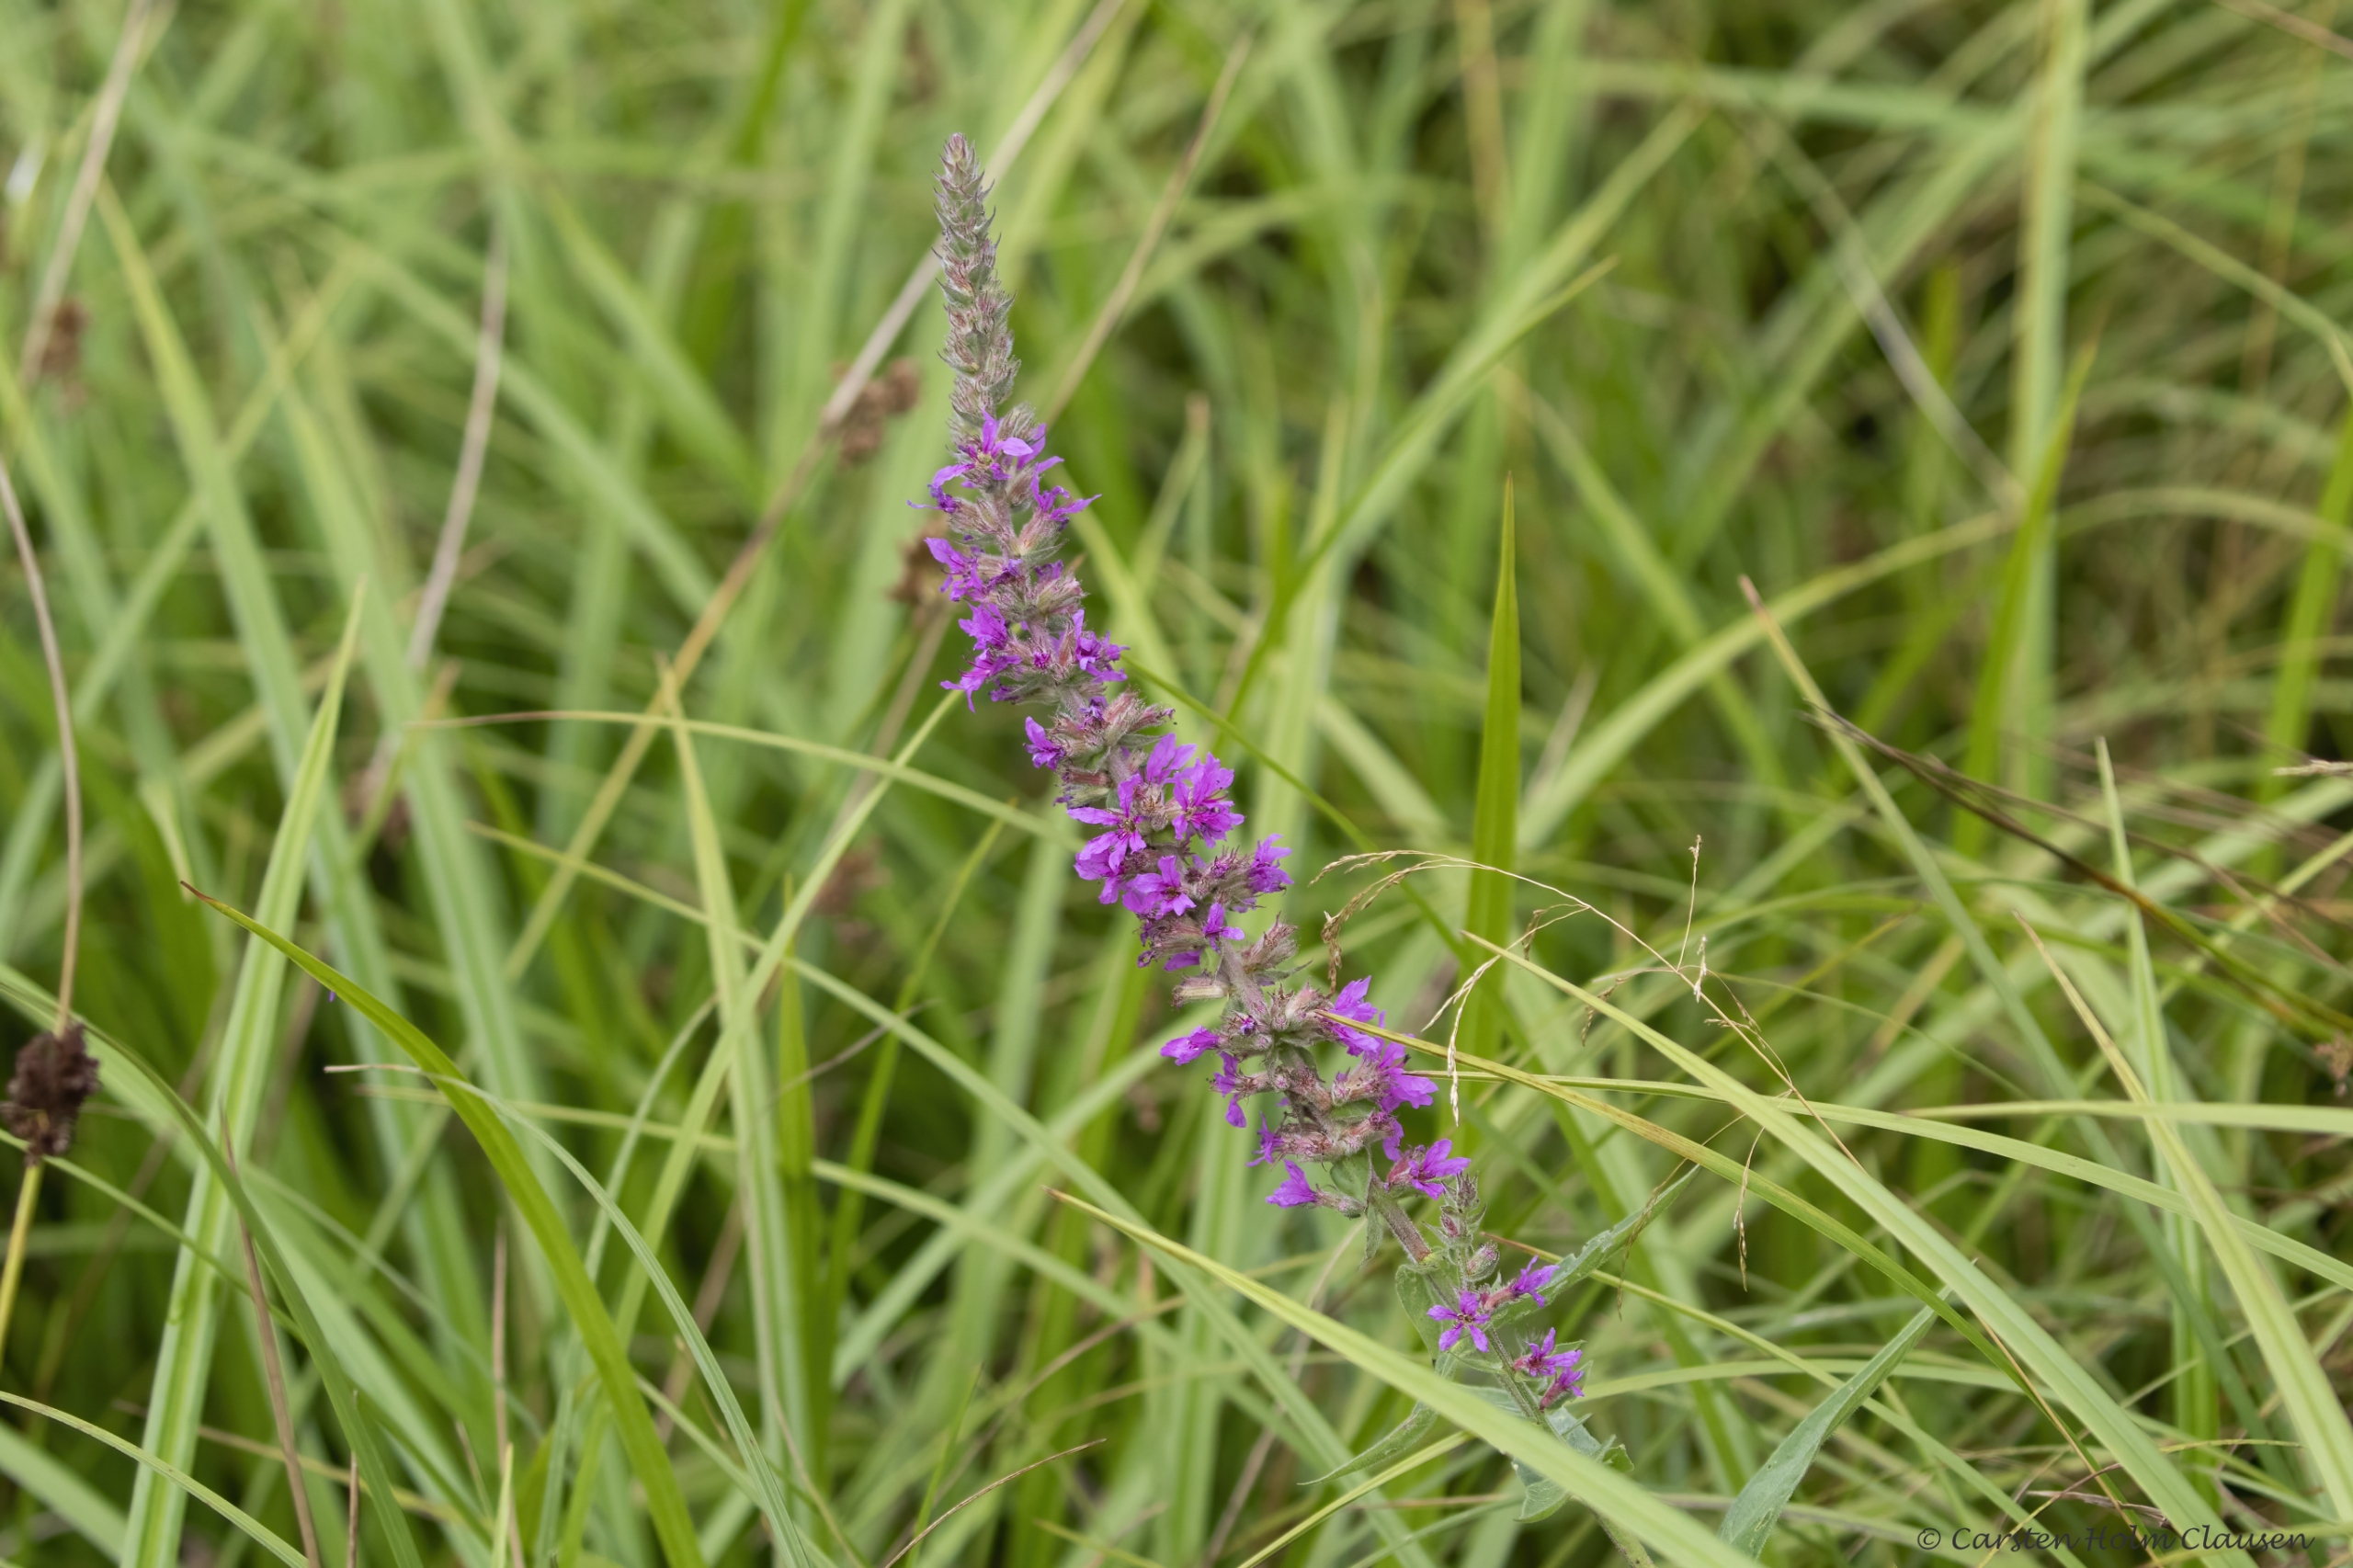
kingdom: Plantae
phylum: Tracheophyta
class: Magnoliopsida
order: Myrtales
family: Lythraceae
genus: Lythrum
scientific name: Lythrum salicaria
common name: Kattehale
